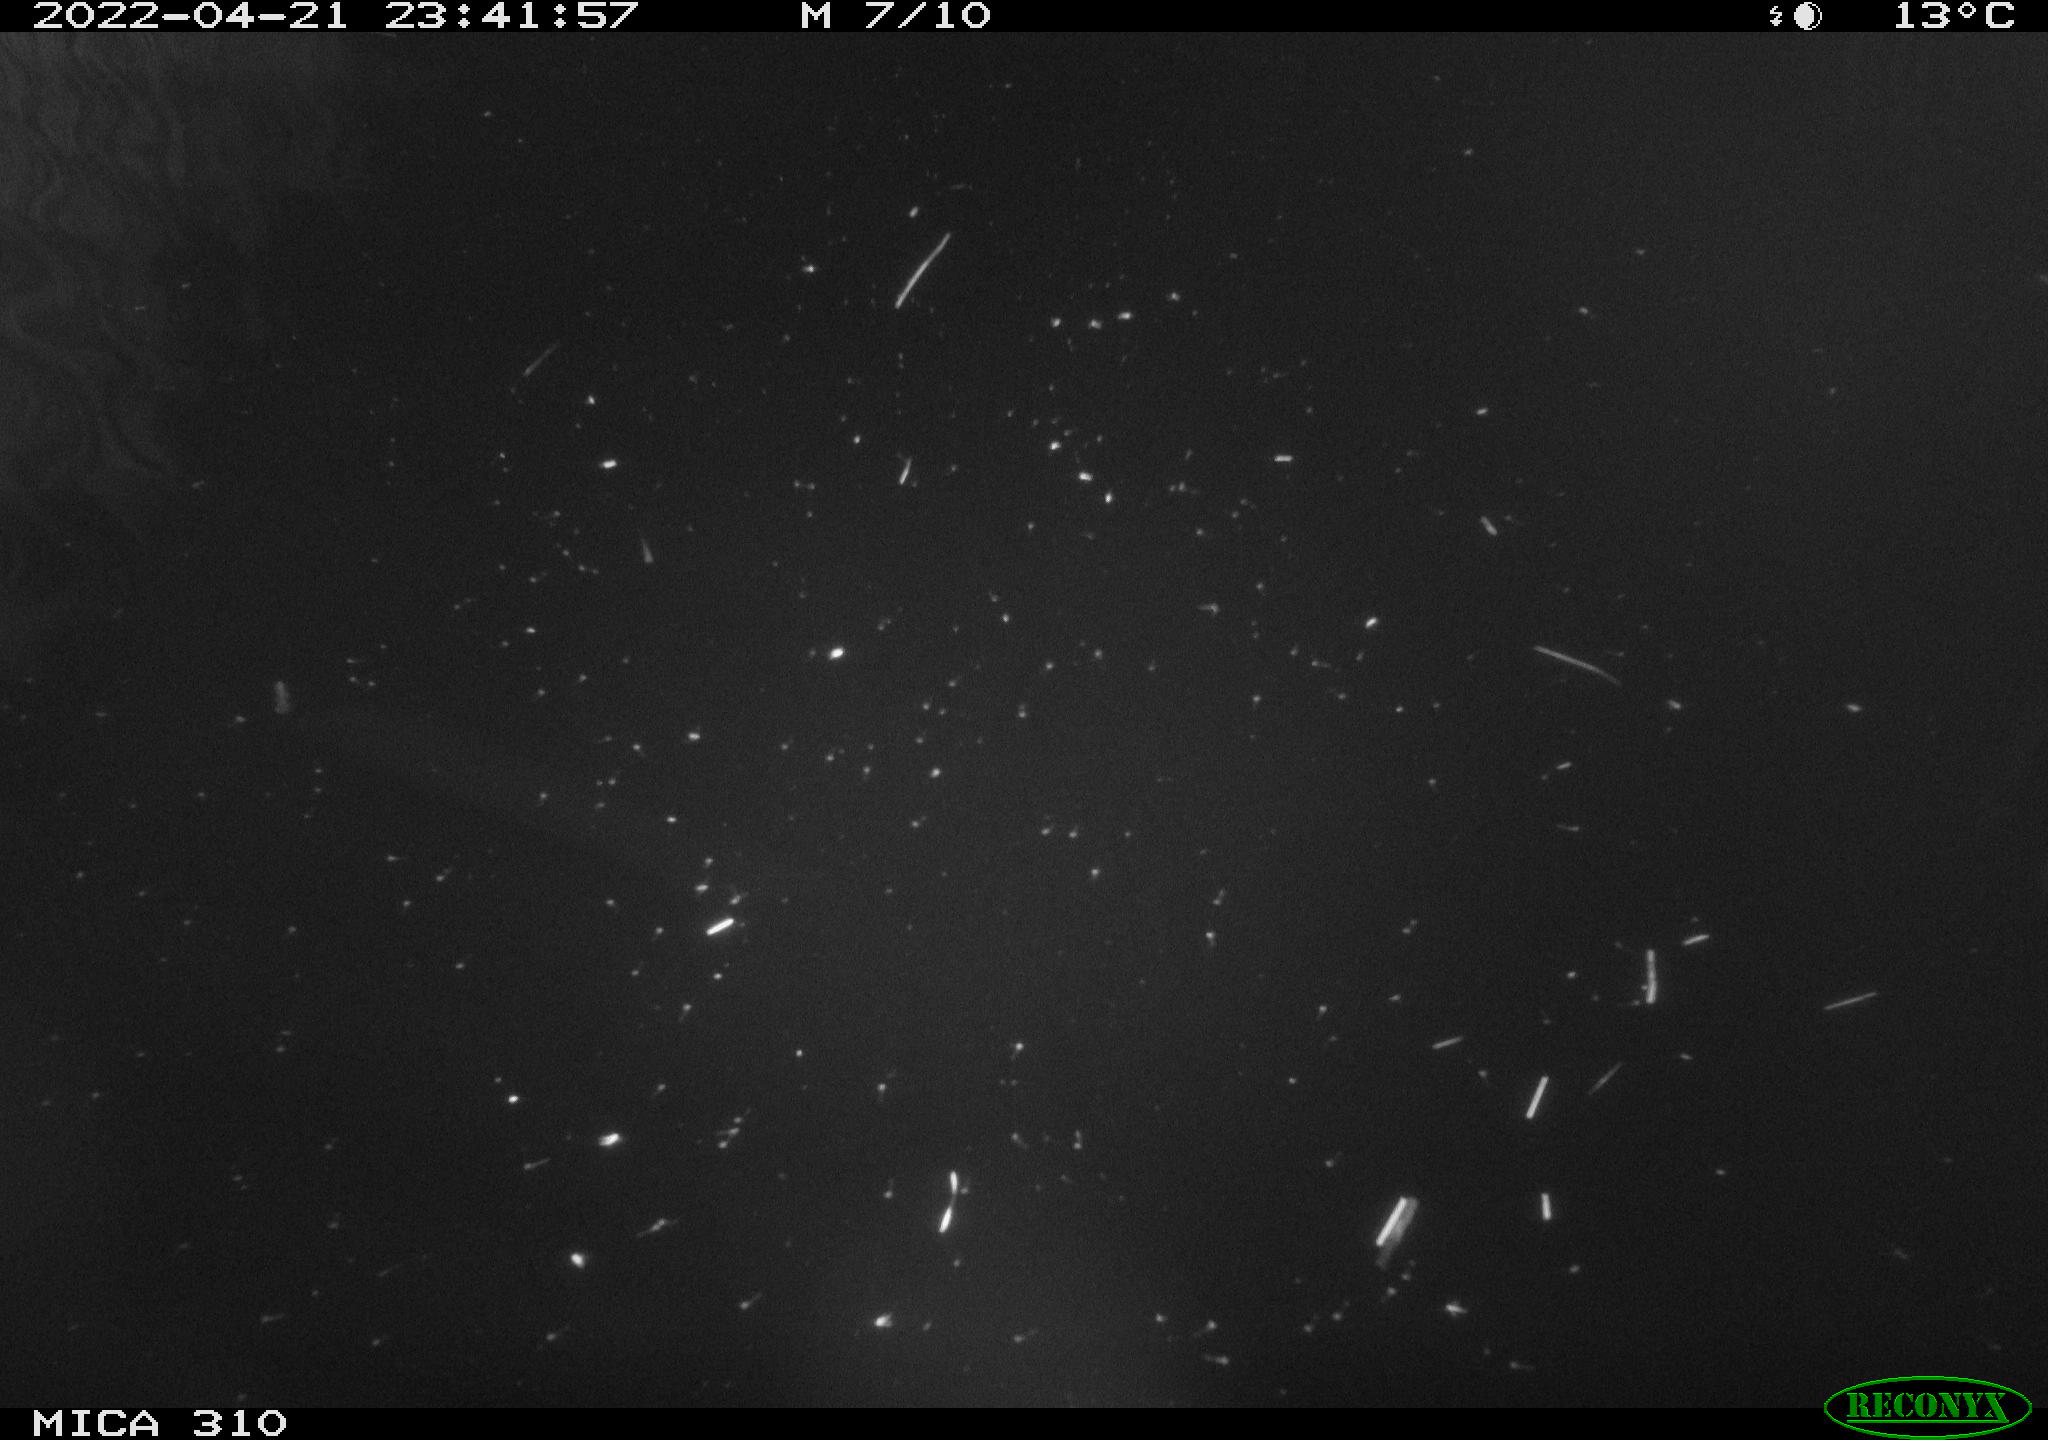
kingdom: Animalia
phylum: Chordata
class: Aves
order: Anseriformes
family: Anatidae
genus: Anas
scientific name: Anas platyrhynchos
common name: Mallard
